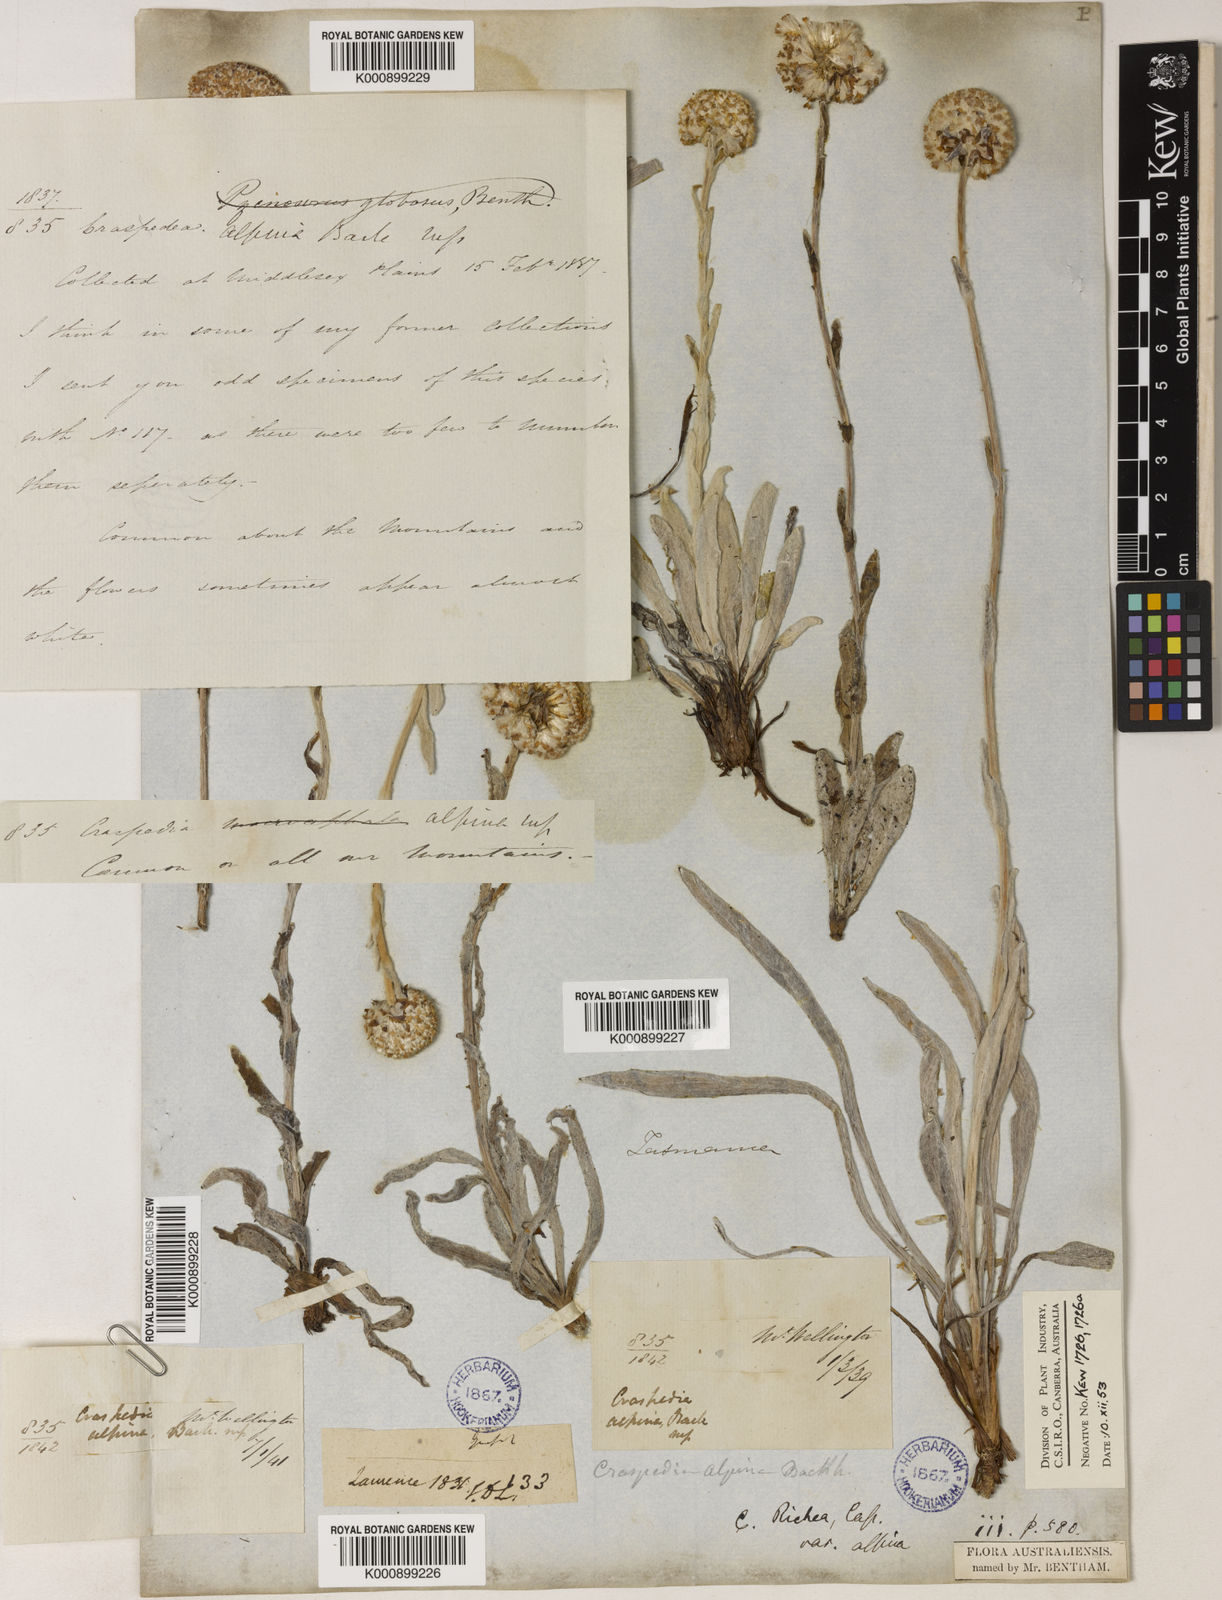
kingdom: Plantae
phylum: Tracheophyta
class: Magnoliopsida
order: Asterales
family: Asteraceae
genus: Craspedia
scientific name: Craspedia glauca
